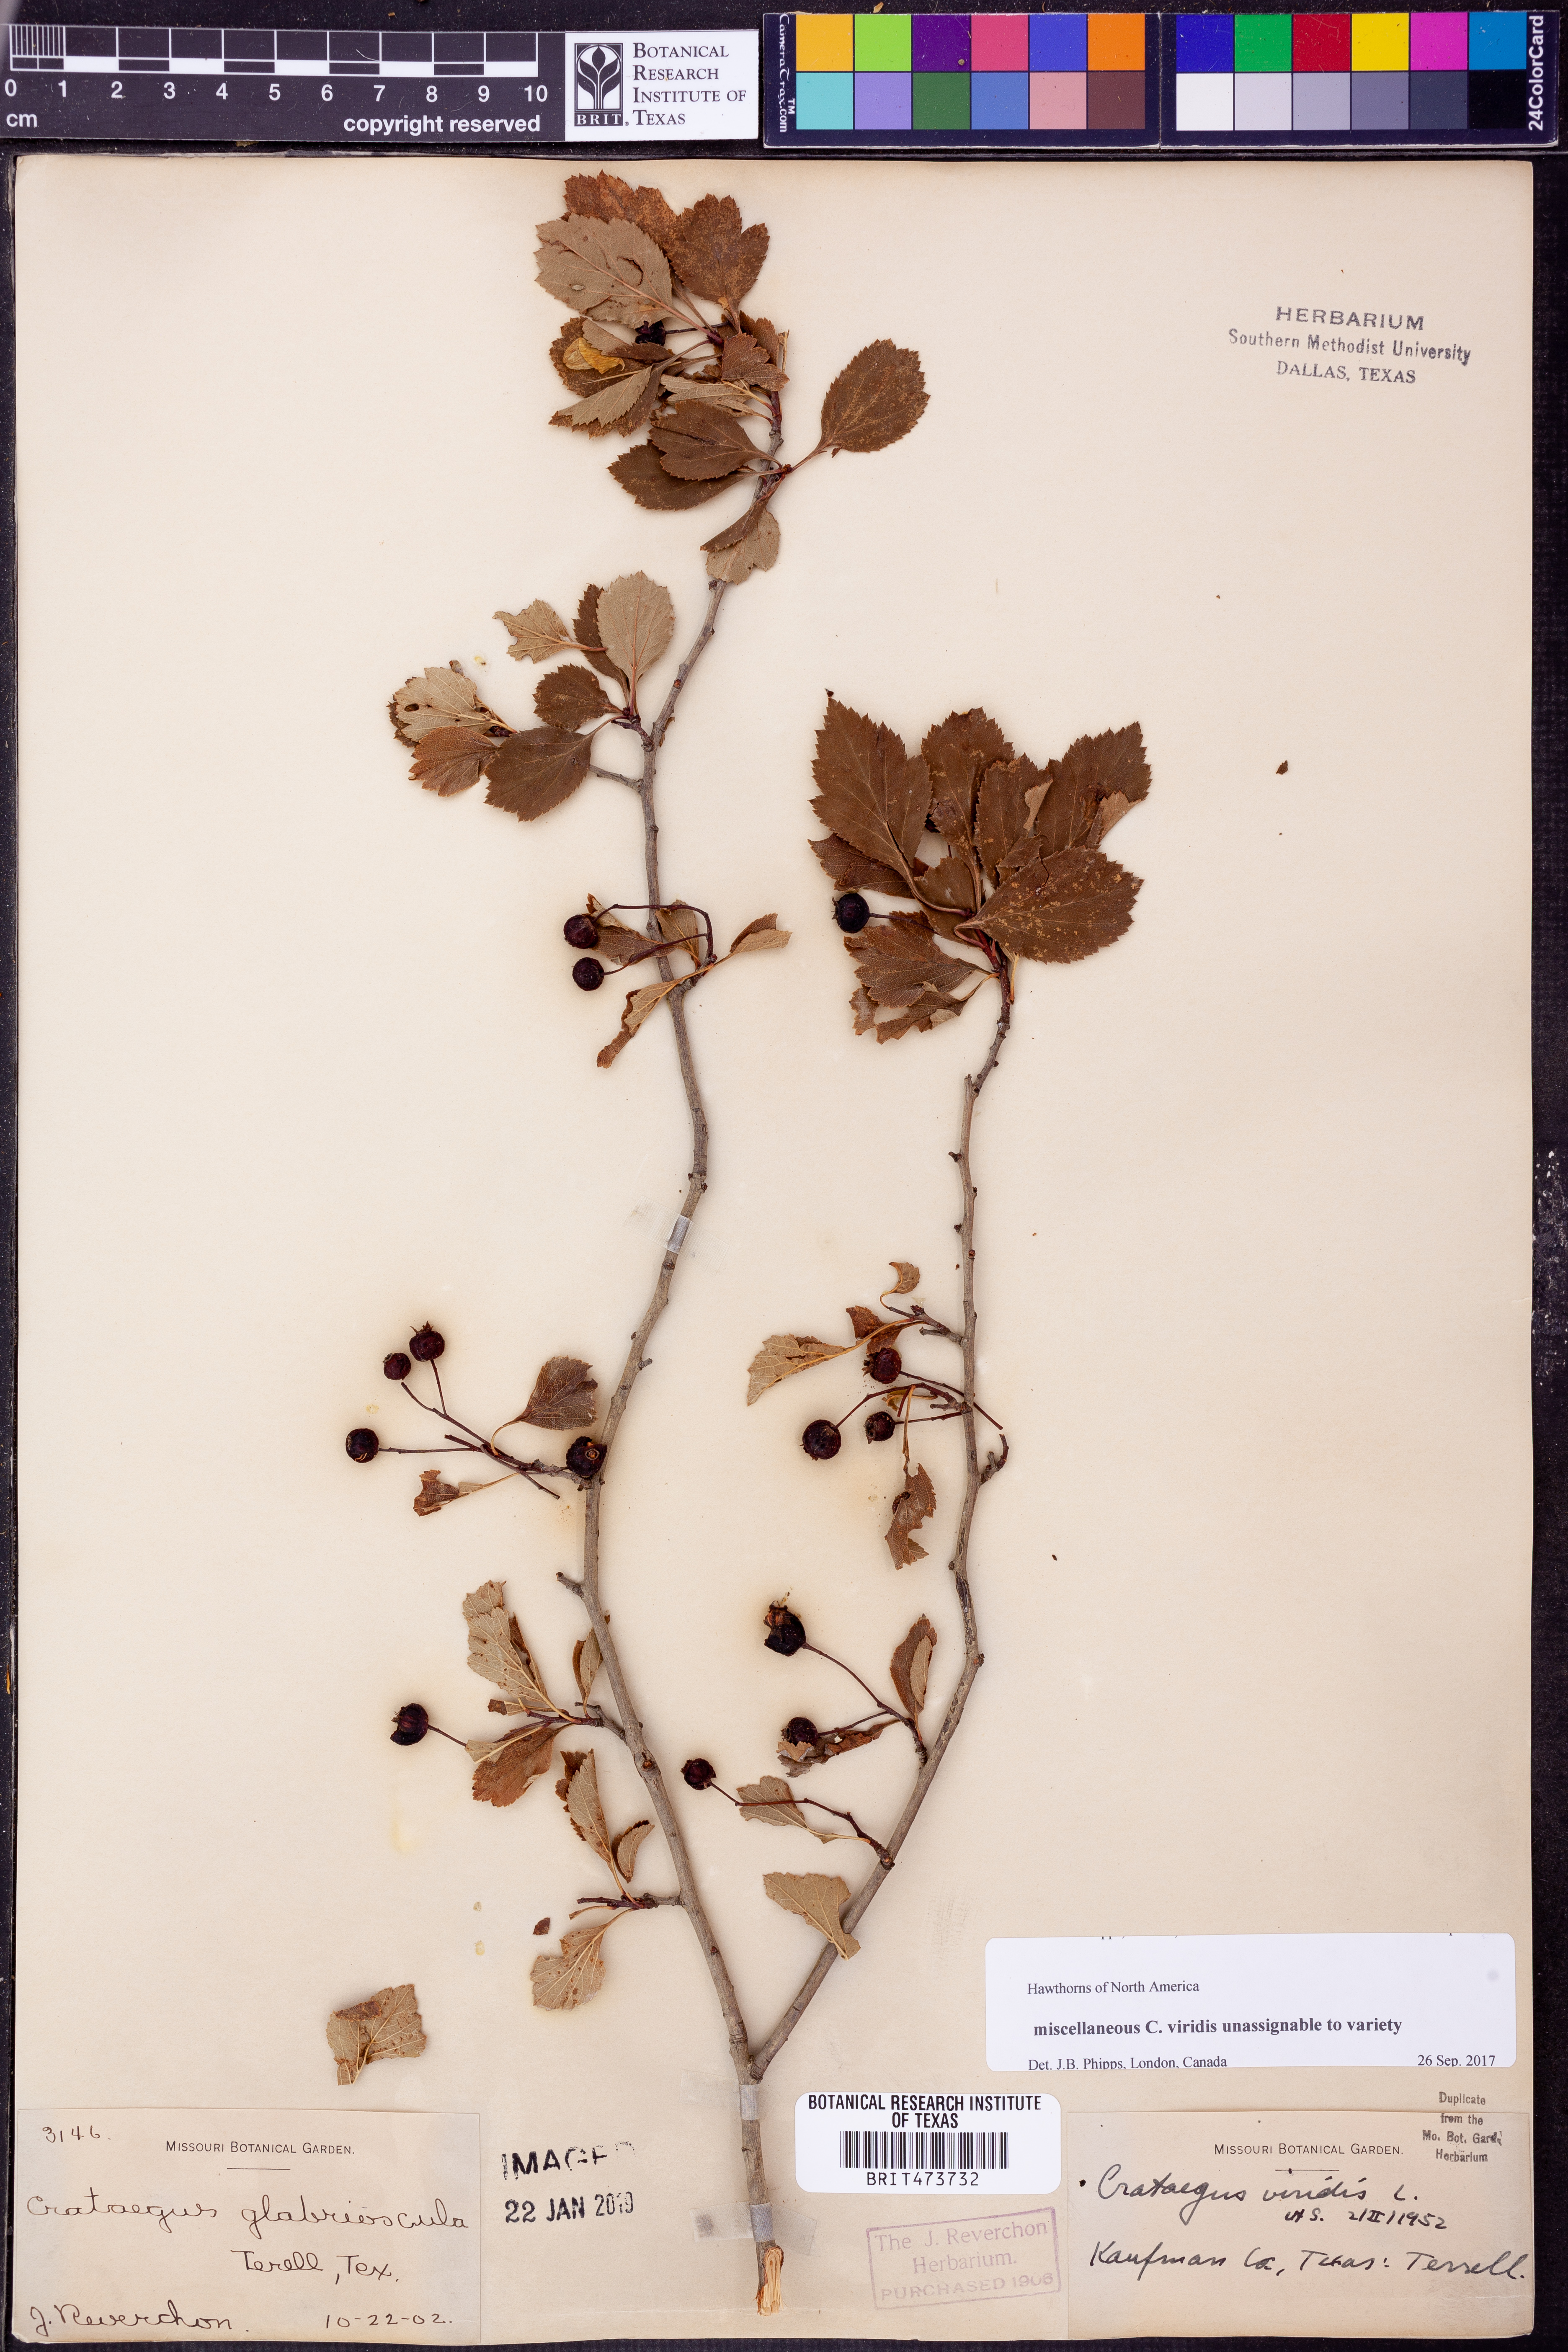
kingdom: Plantae
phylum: Tracheophyta
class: Magnoliopsida
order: Rosales
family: Rosaceae
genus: Crataegus
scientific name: Crataegus viridis
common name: Southernthorn
